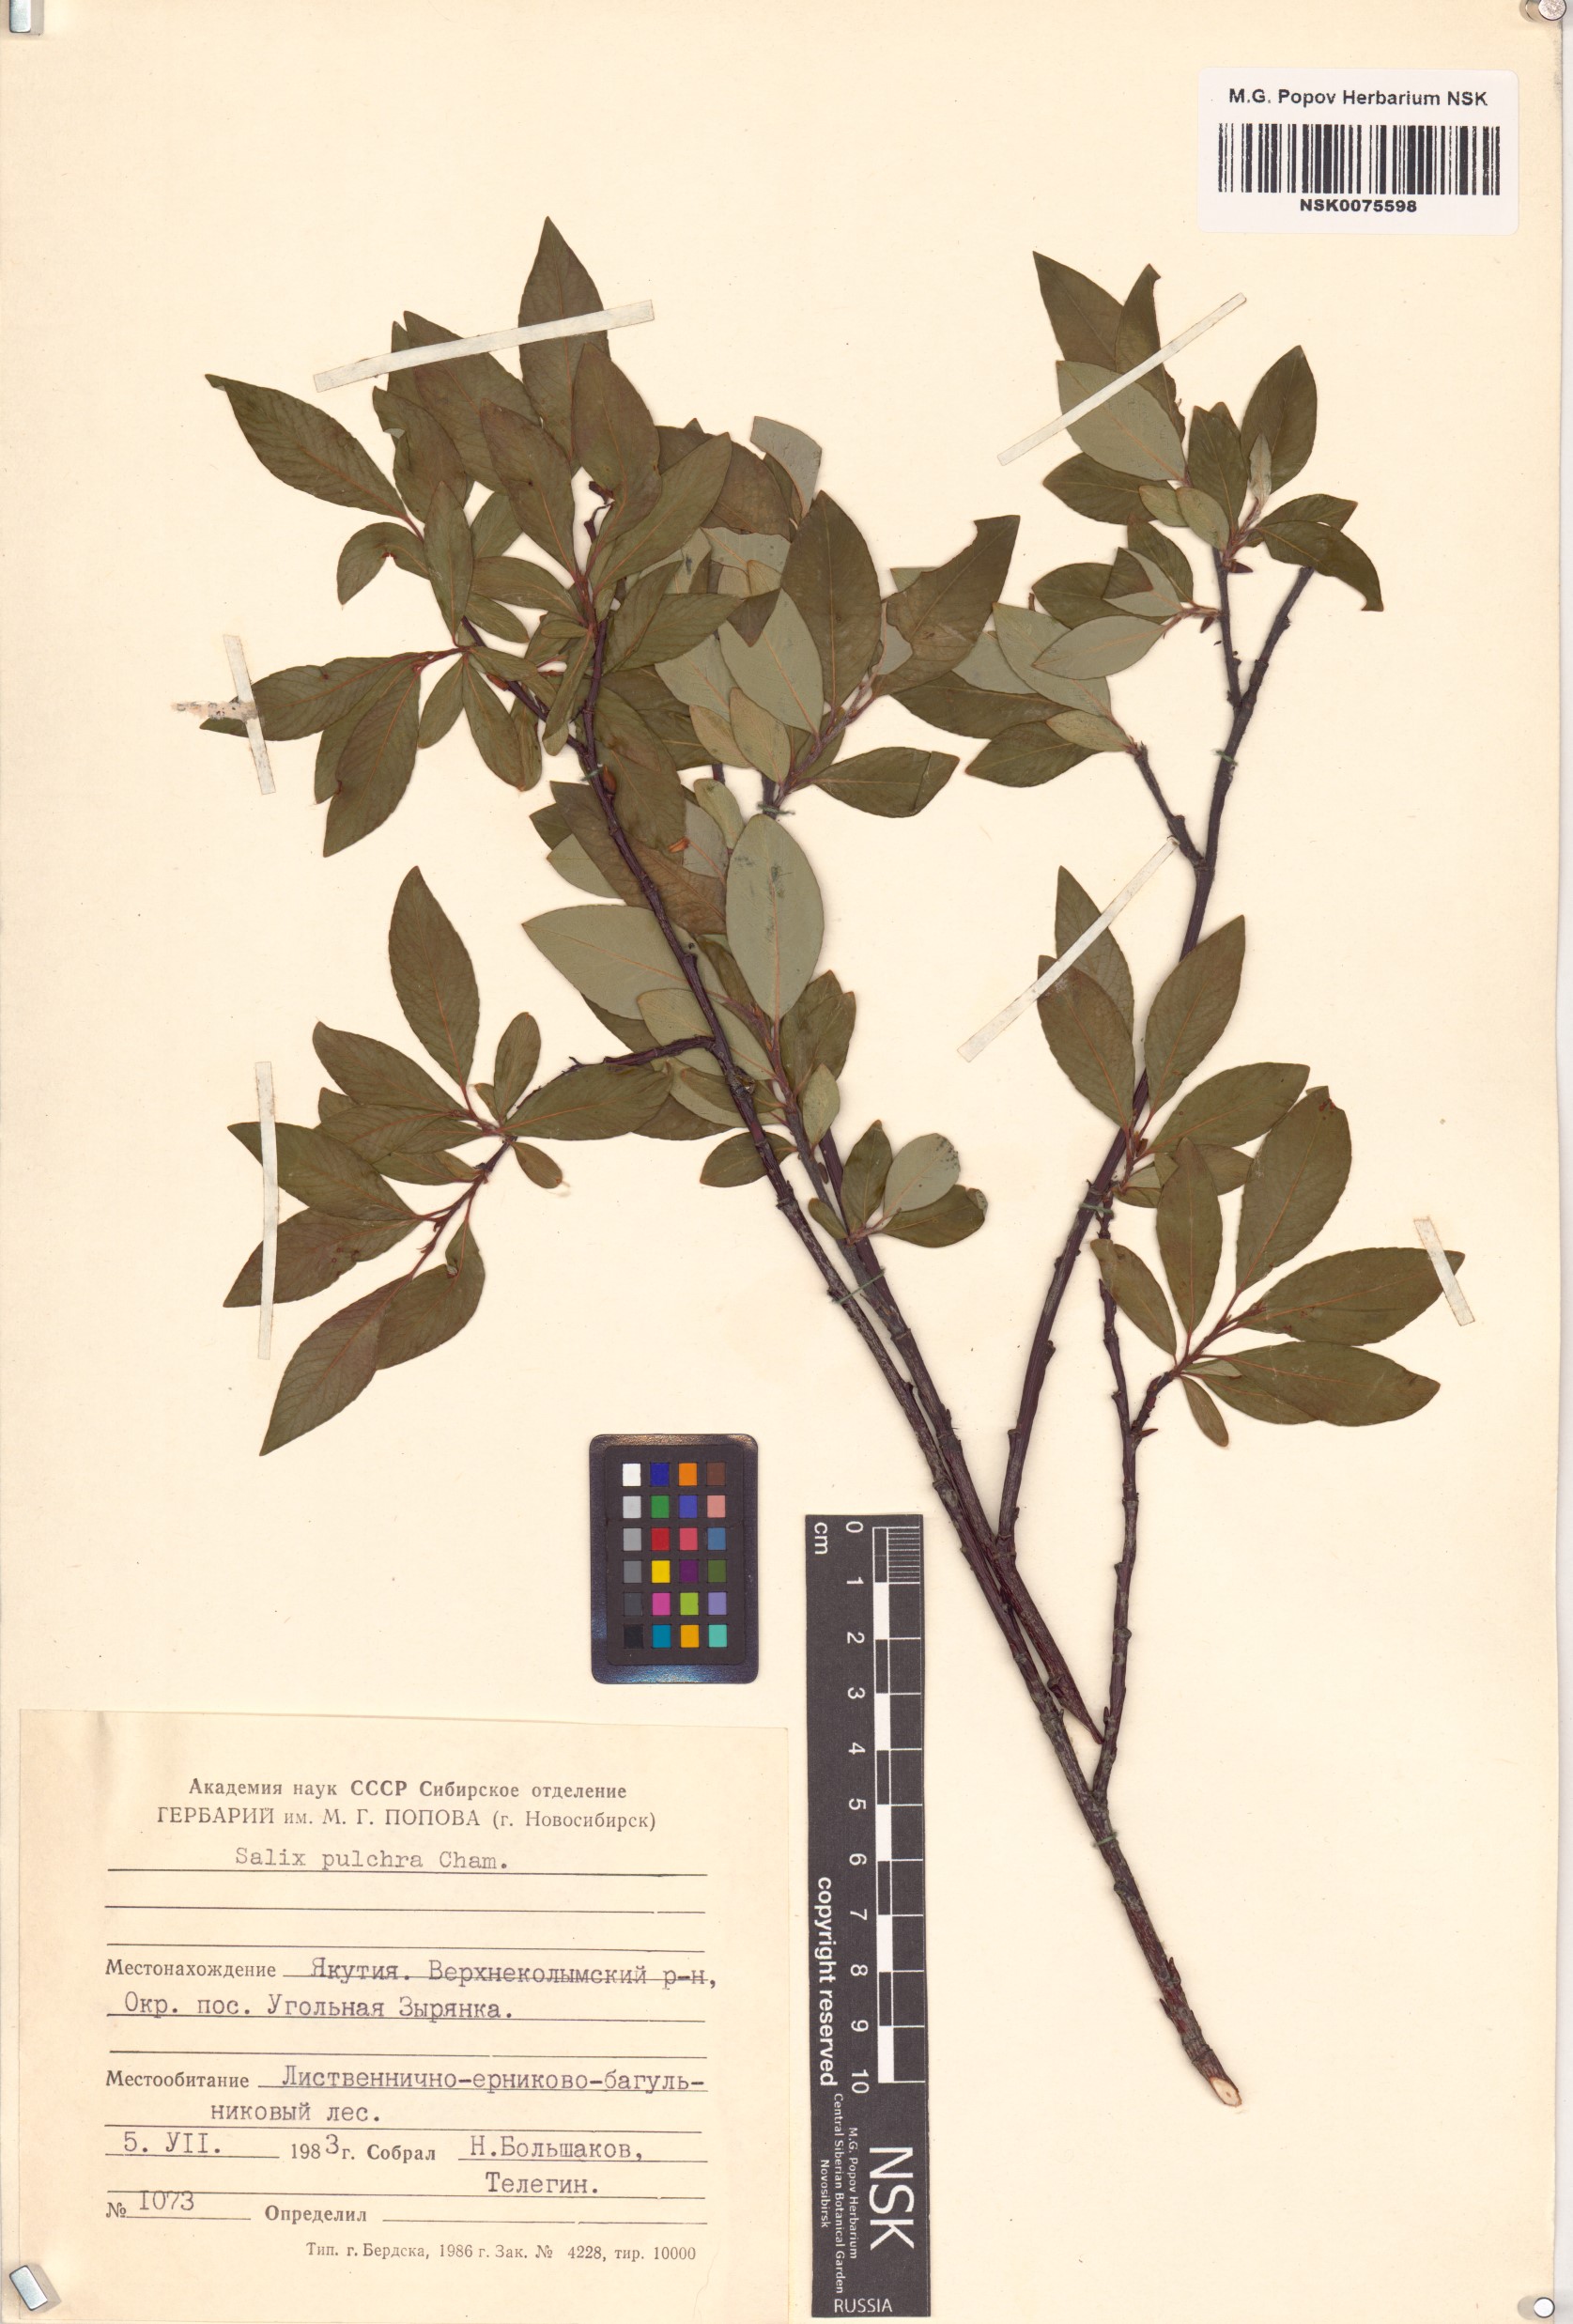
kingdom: Plantae
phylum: Tracheophyta
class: Magnoliopsida
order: Malpighiales
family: Salicaceae
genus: Salix
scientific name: Salix pulchra
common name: Diamond-leaved willow
